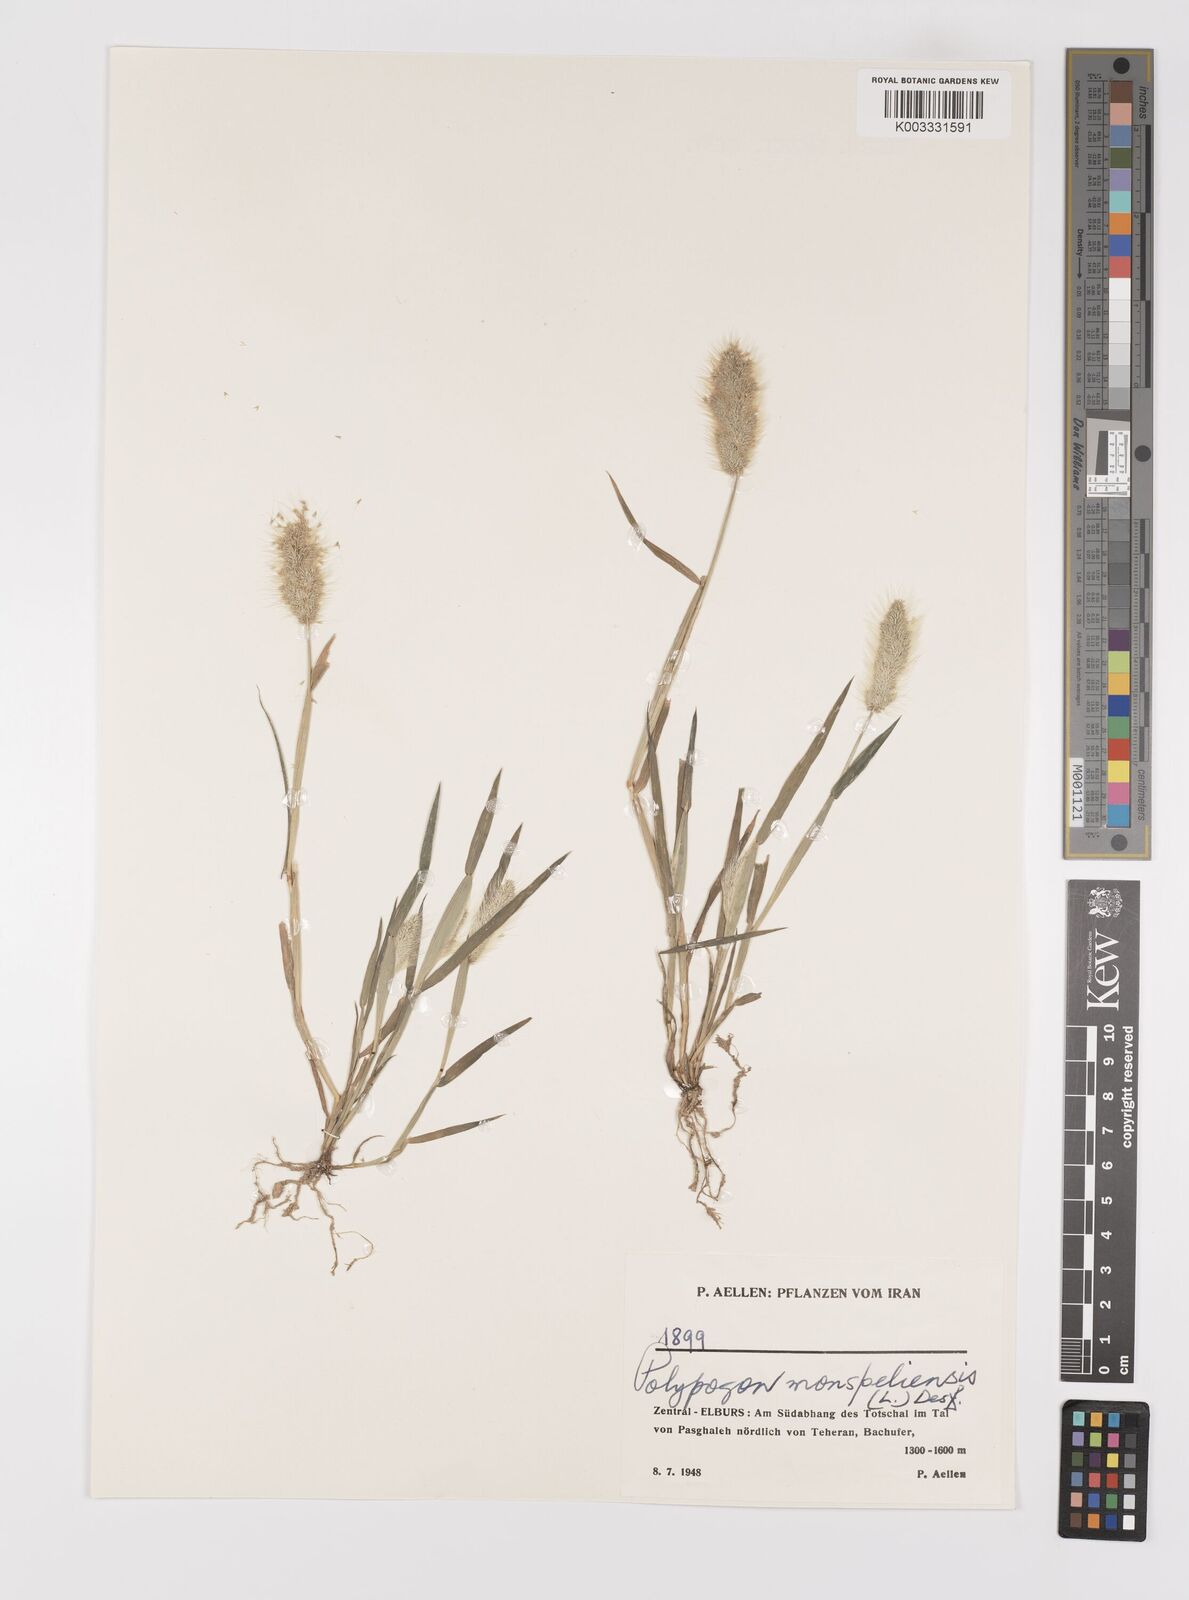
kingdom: Plantae
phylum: Tracheophyta
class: Liliopsida
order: Poales
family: Poaceae
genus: Polypogon
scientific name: Polypogon monspeliensis
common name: Annual rabbitsfoot grass
